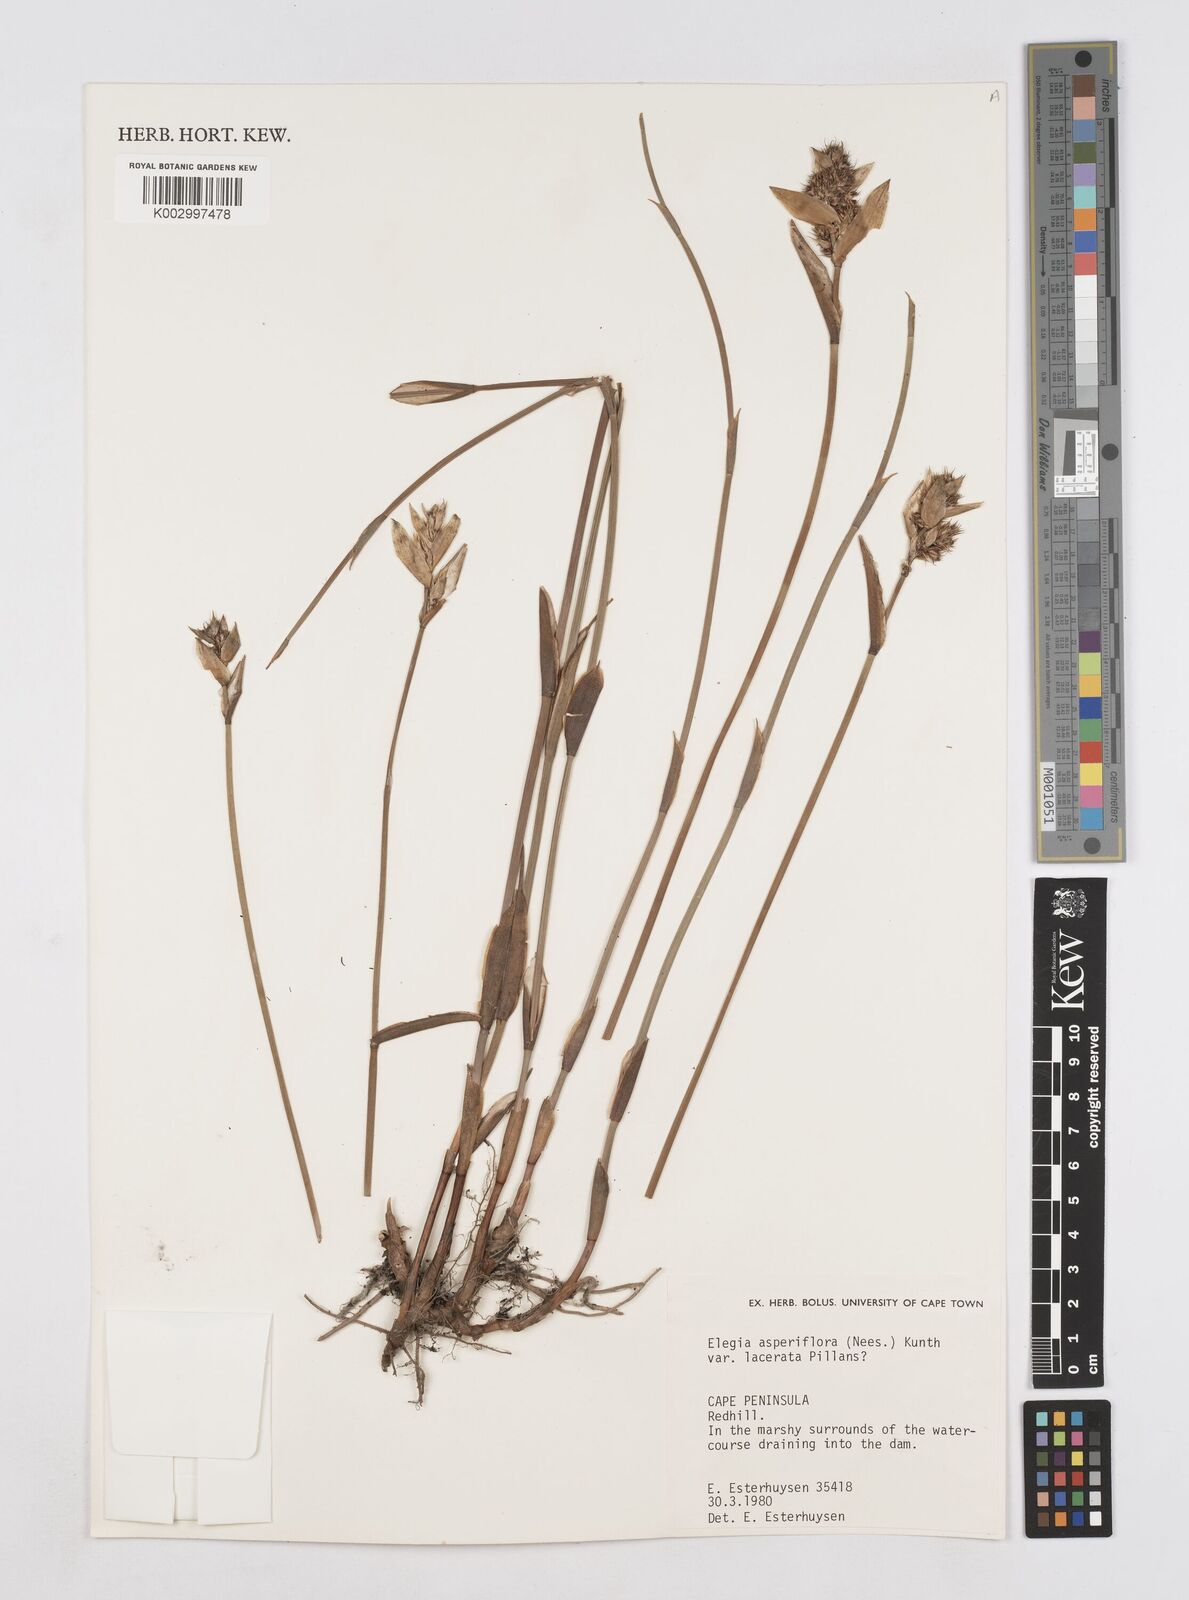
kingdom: Plantae
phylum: Tracheophyta
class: Liliopsida
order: Poales
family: Restionaceae
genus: Elegia
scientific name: Elegia asperiflora
